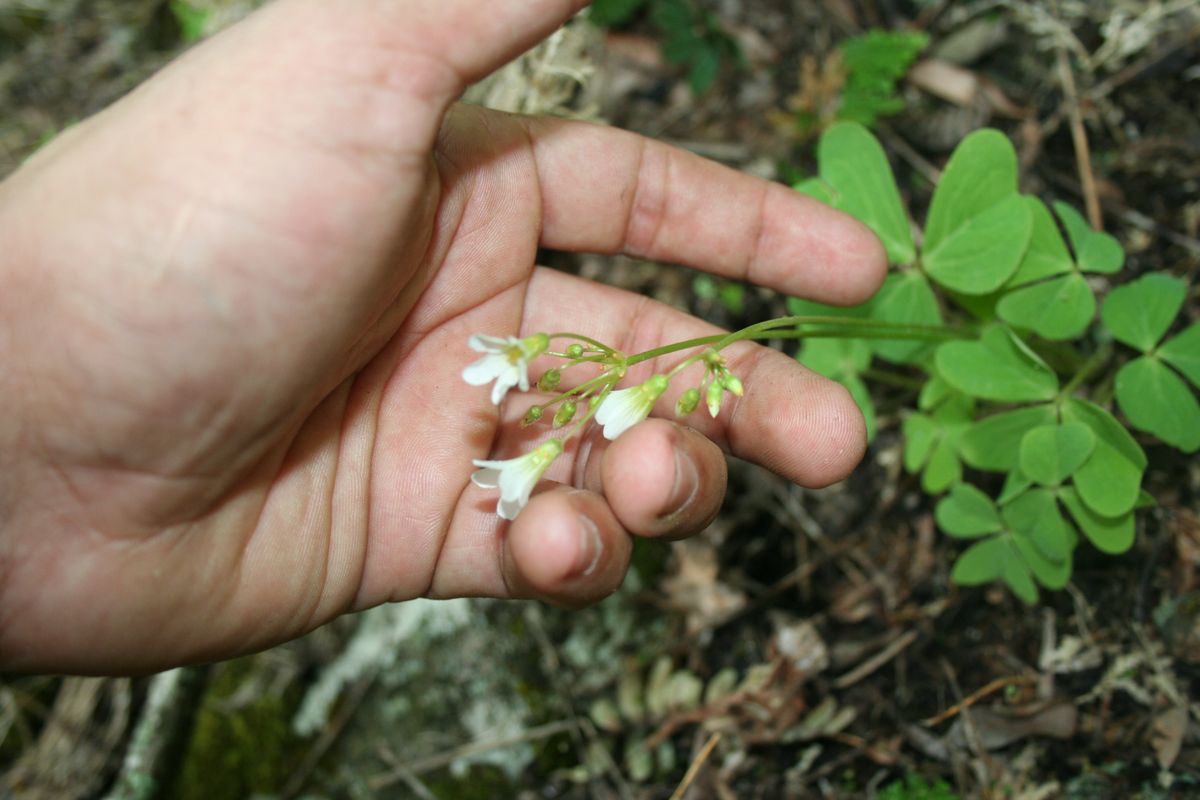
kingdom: Plantae
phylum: Tracheophyta
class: Magnoliopsida
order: Oxalidales
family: Oxalidaceae
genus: Oxalis
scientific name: Oxalis latifolia
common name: Garden pink-sorrel
